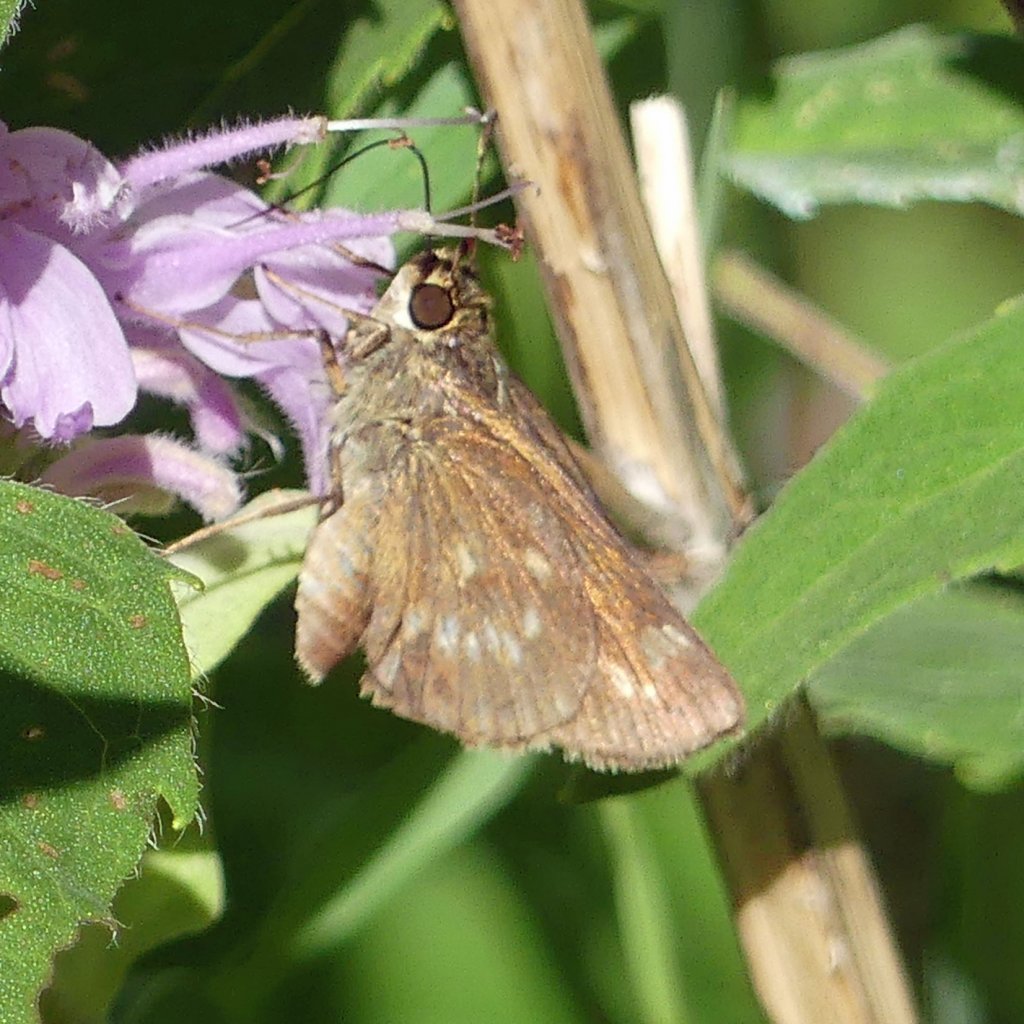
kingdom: Animalia
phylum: Arthropoda
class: Insecta
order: Lepidoptera
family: Hesperiidae
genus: Vernia
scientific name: Vernia verna
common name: Little Glassywing
